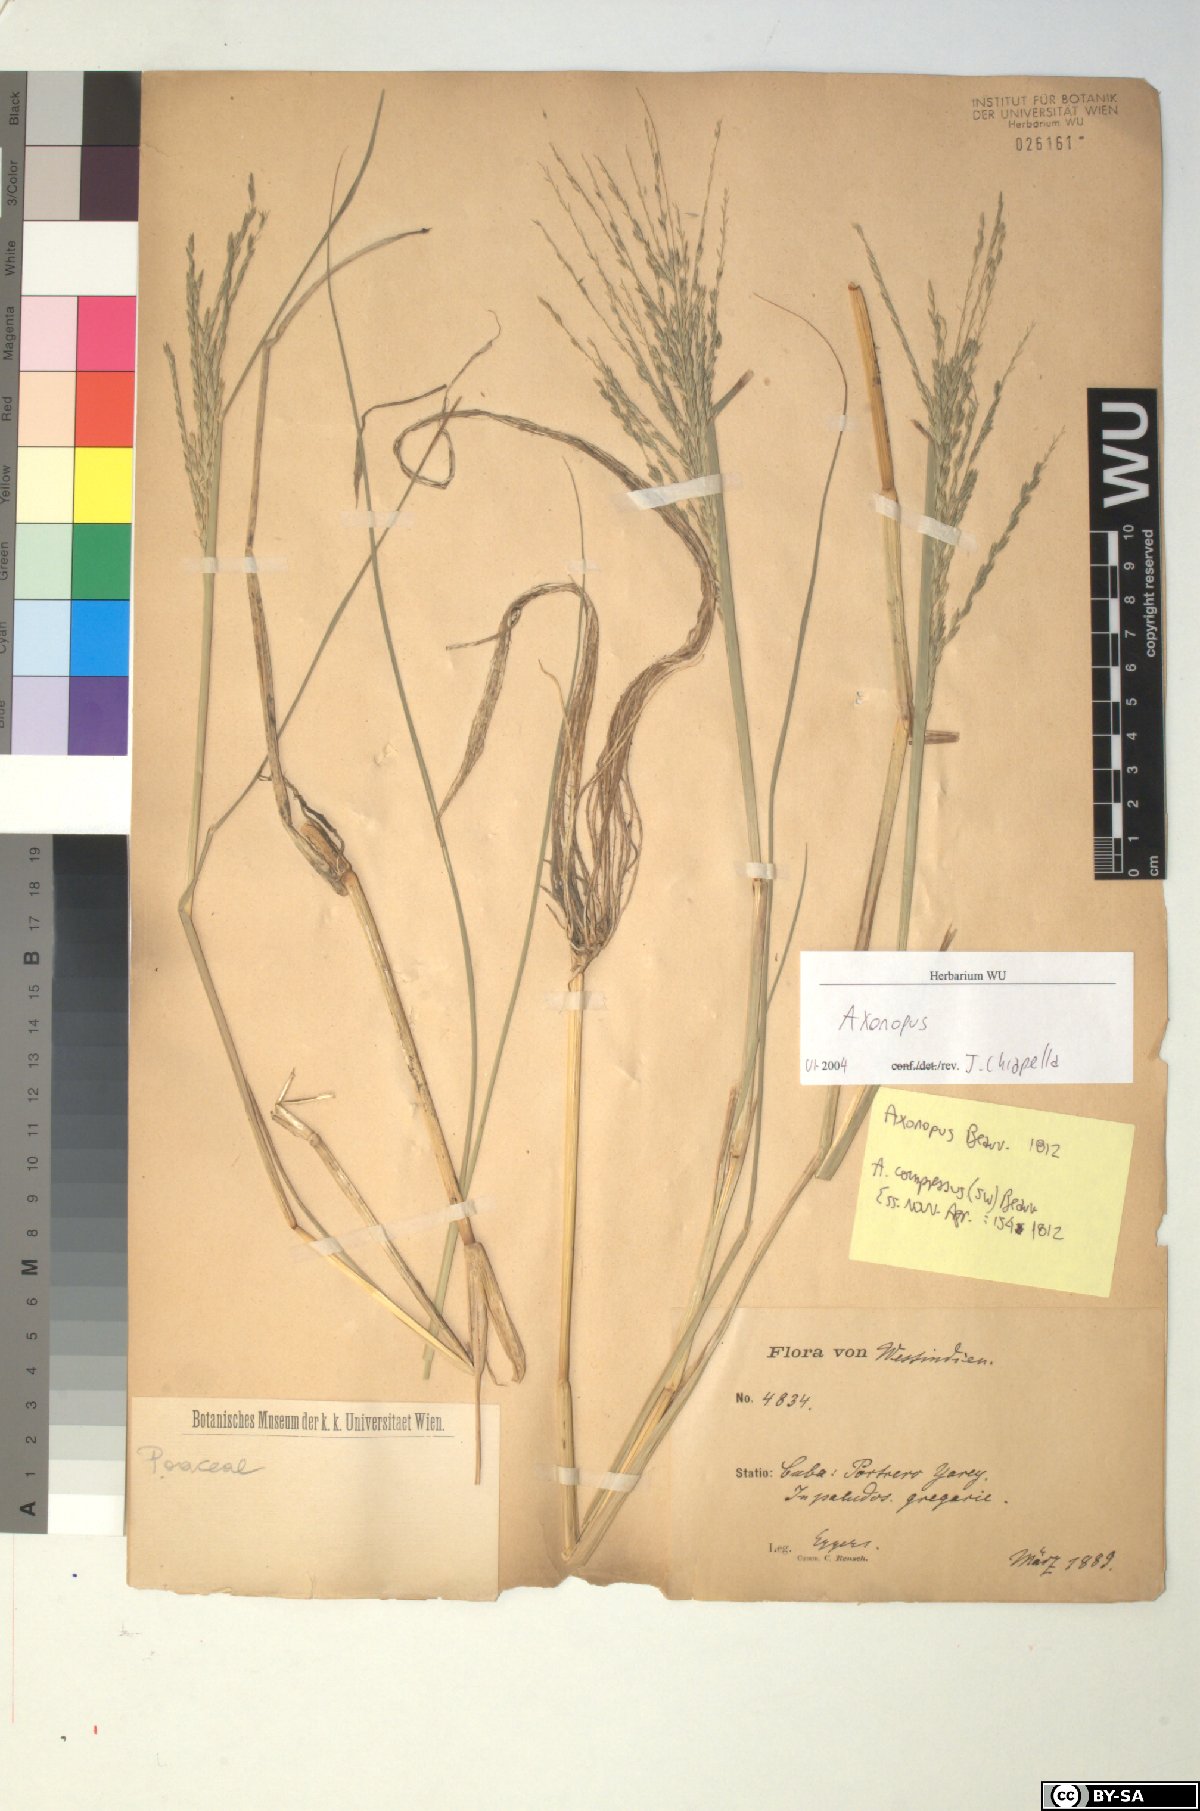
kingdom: Plantae
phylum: Tracheophyta
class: Liliopsida
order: Poales
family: Poaceae
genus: Axonopus
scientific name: Axonopus
